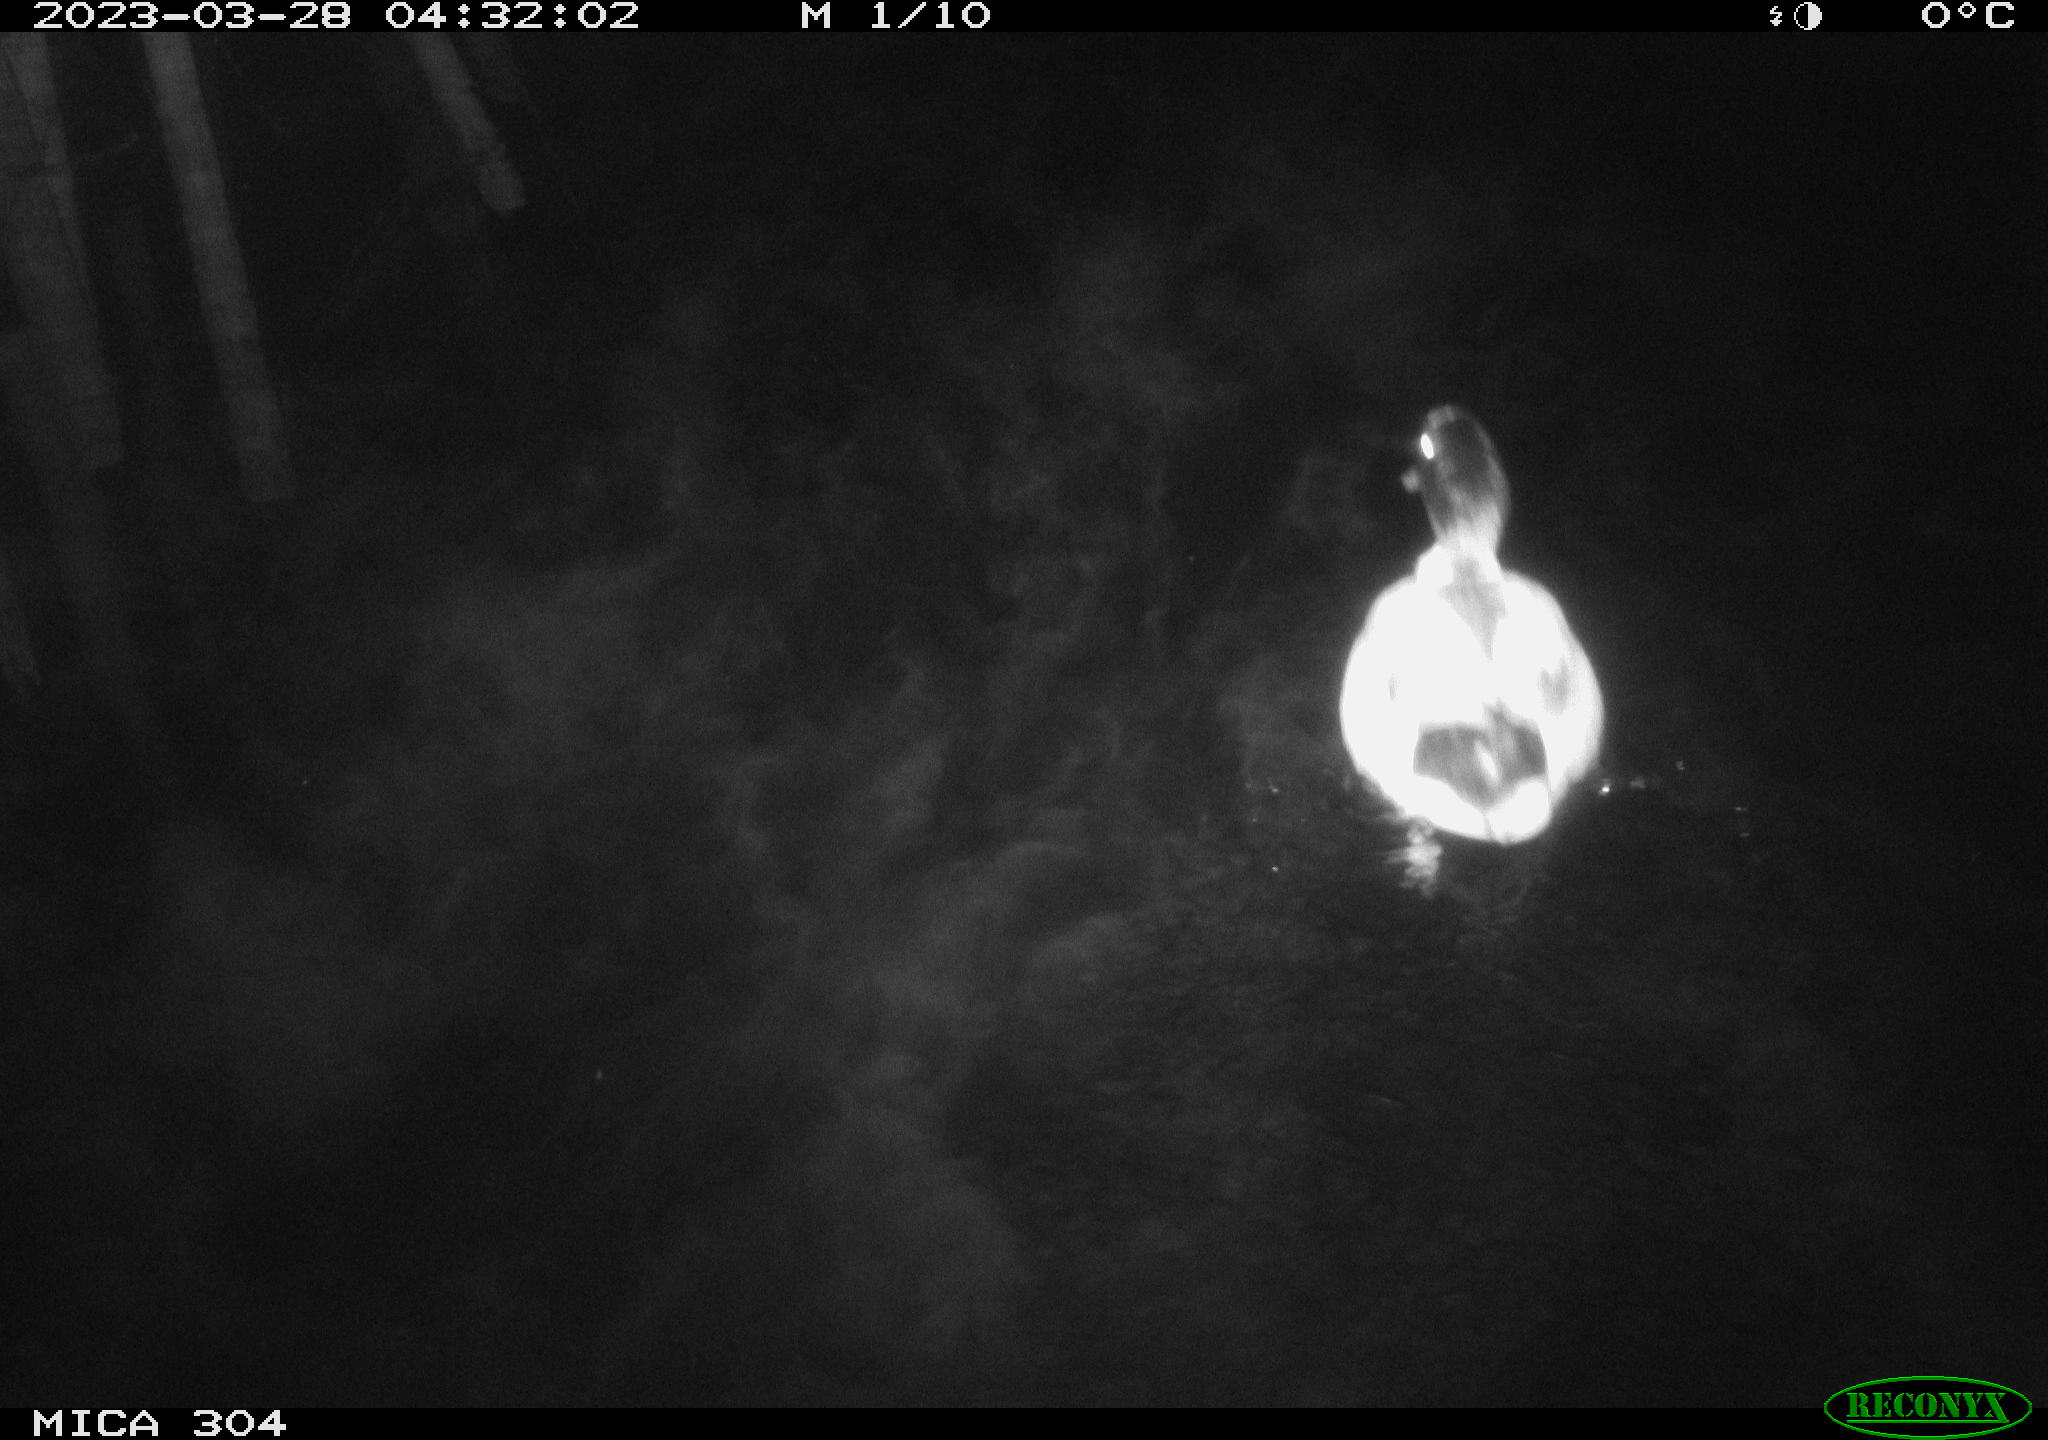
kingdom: Animalia
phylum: Chordata
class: Aves
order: Anseriformes
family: Anatidae
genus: Anas
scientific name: Anas
